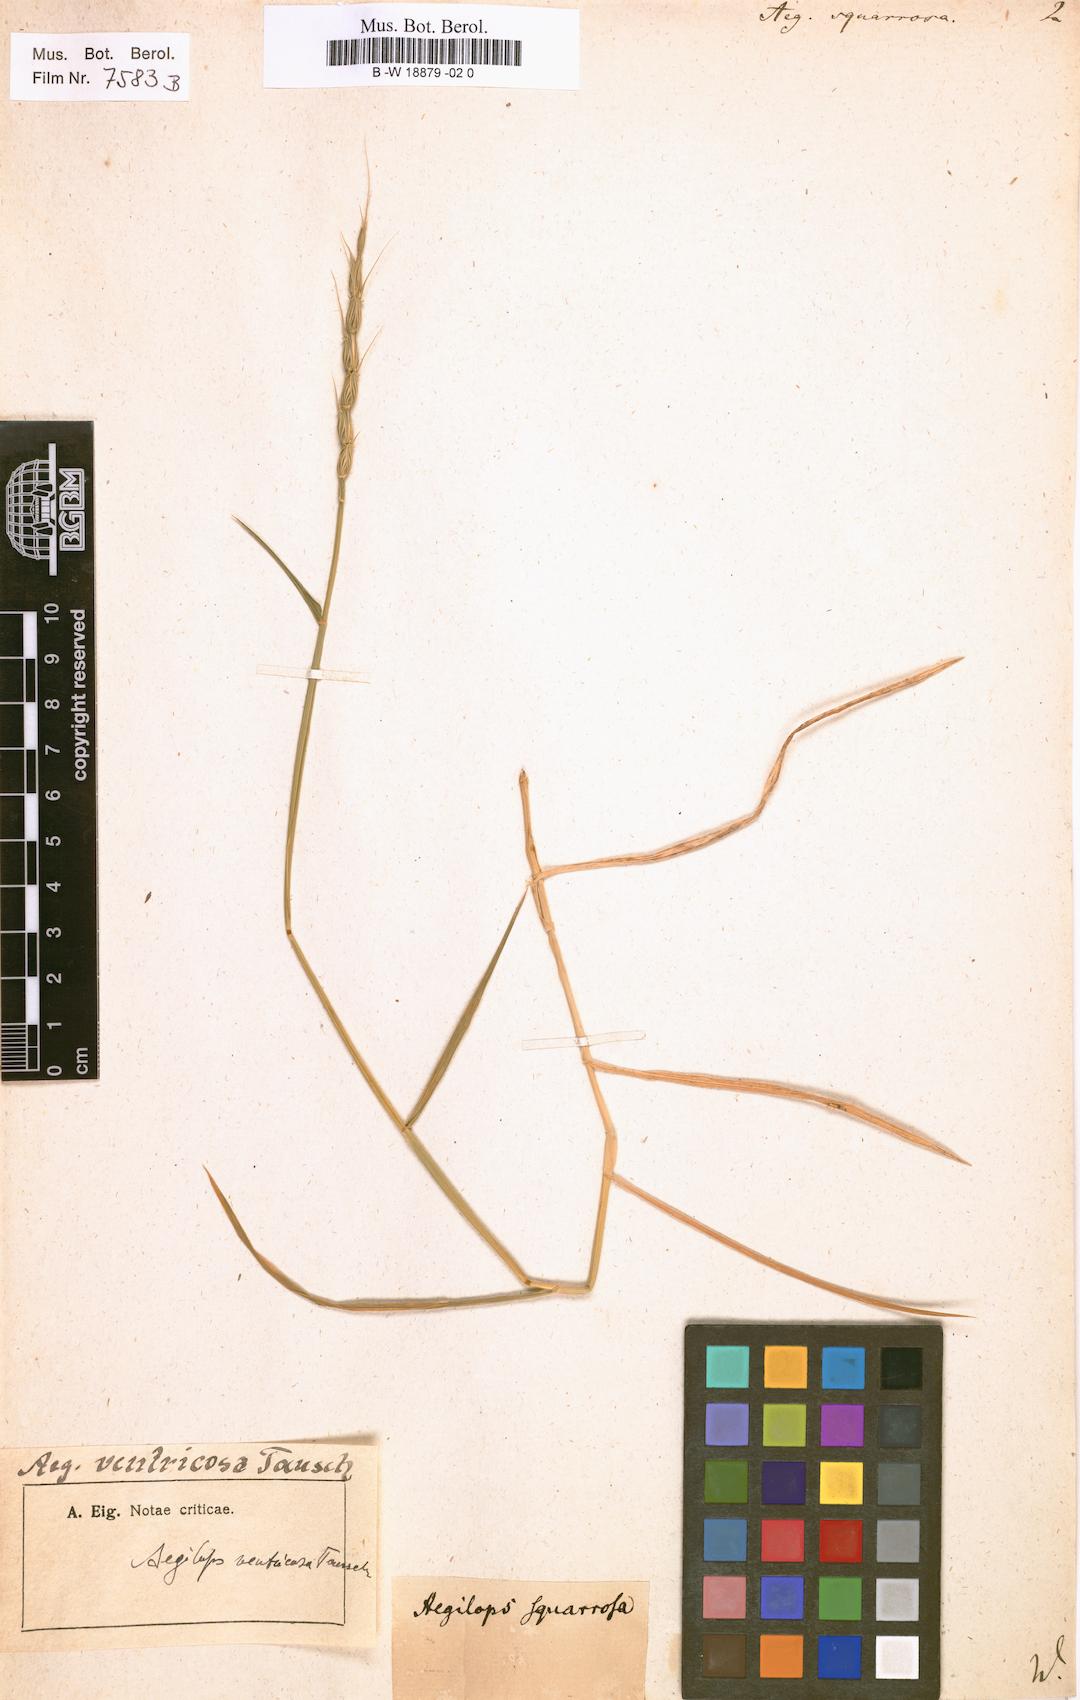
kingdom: Plantae
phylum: Tracheophyta
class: Liliopsida
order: Poales
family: Poaceae
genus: Aegilops
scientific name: Aegilops triuncialis
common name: Barb goat grass
